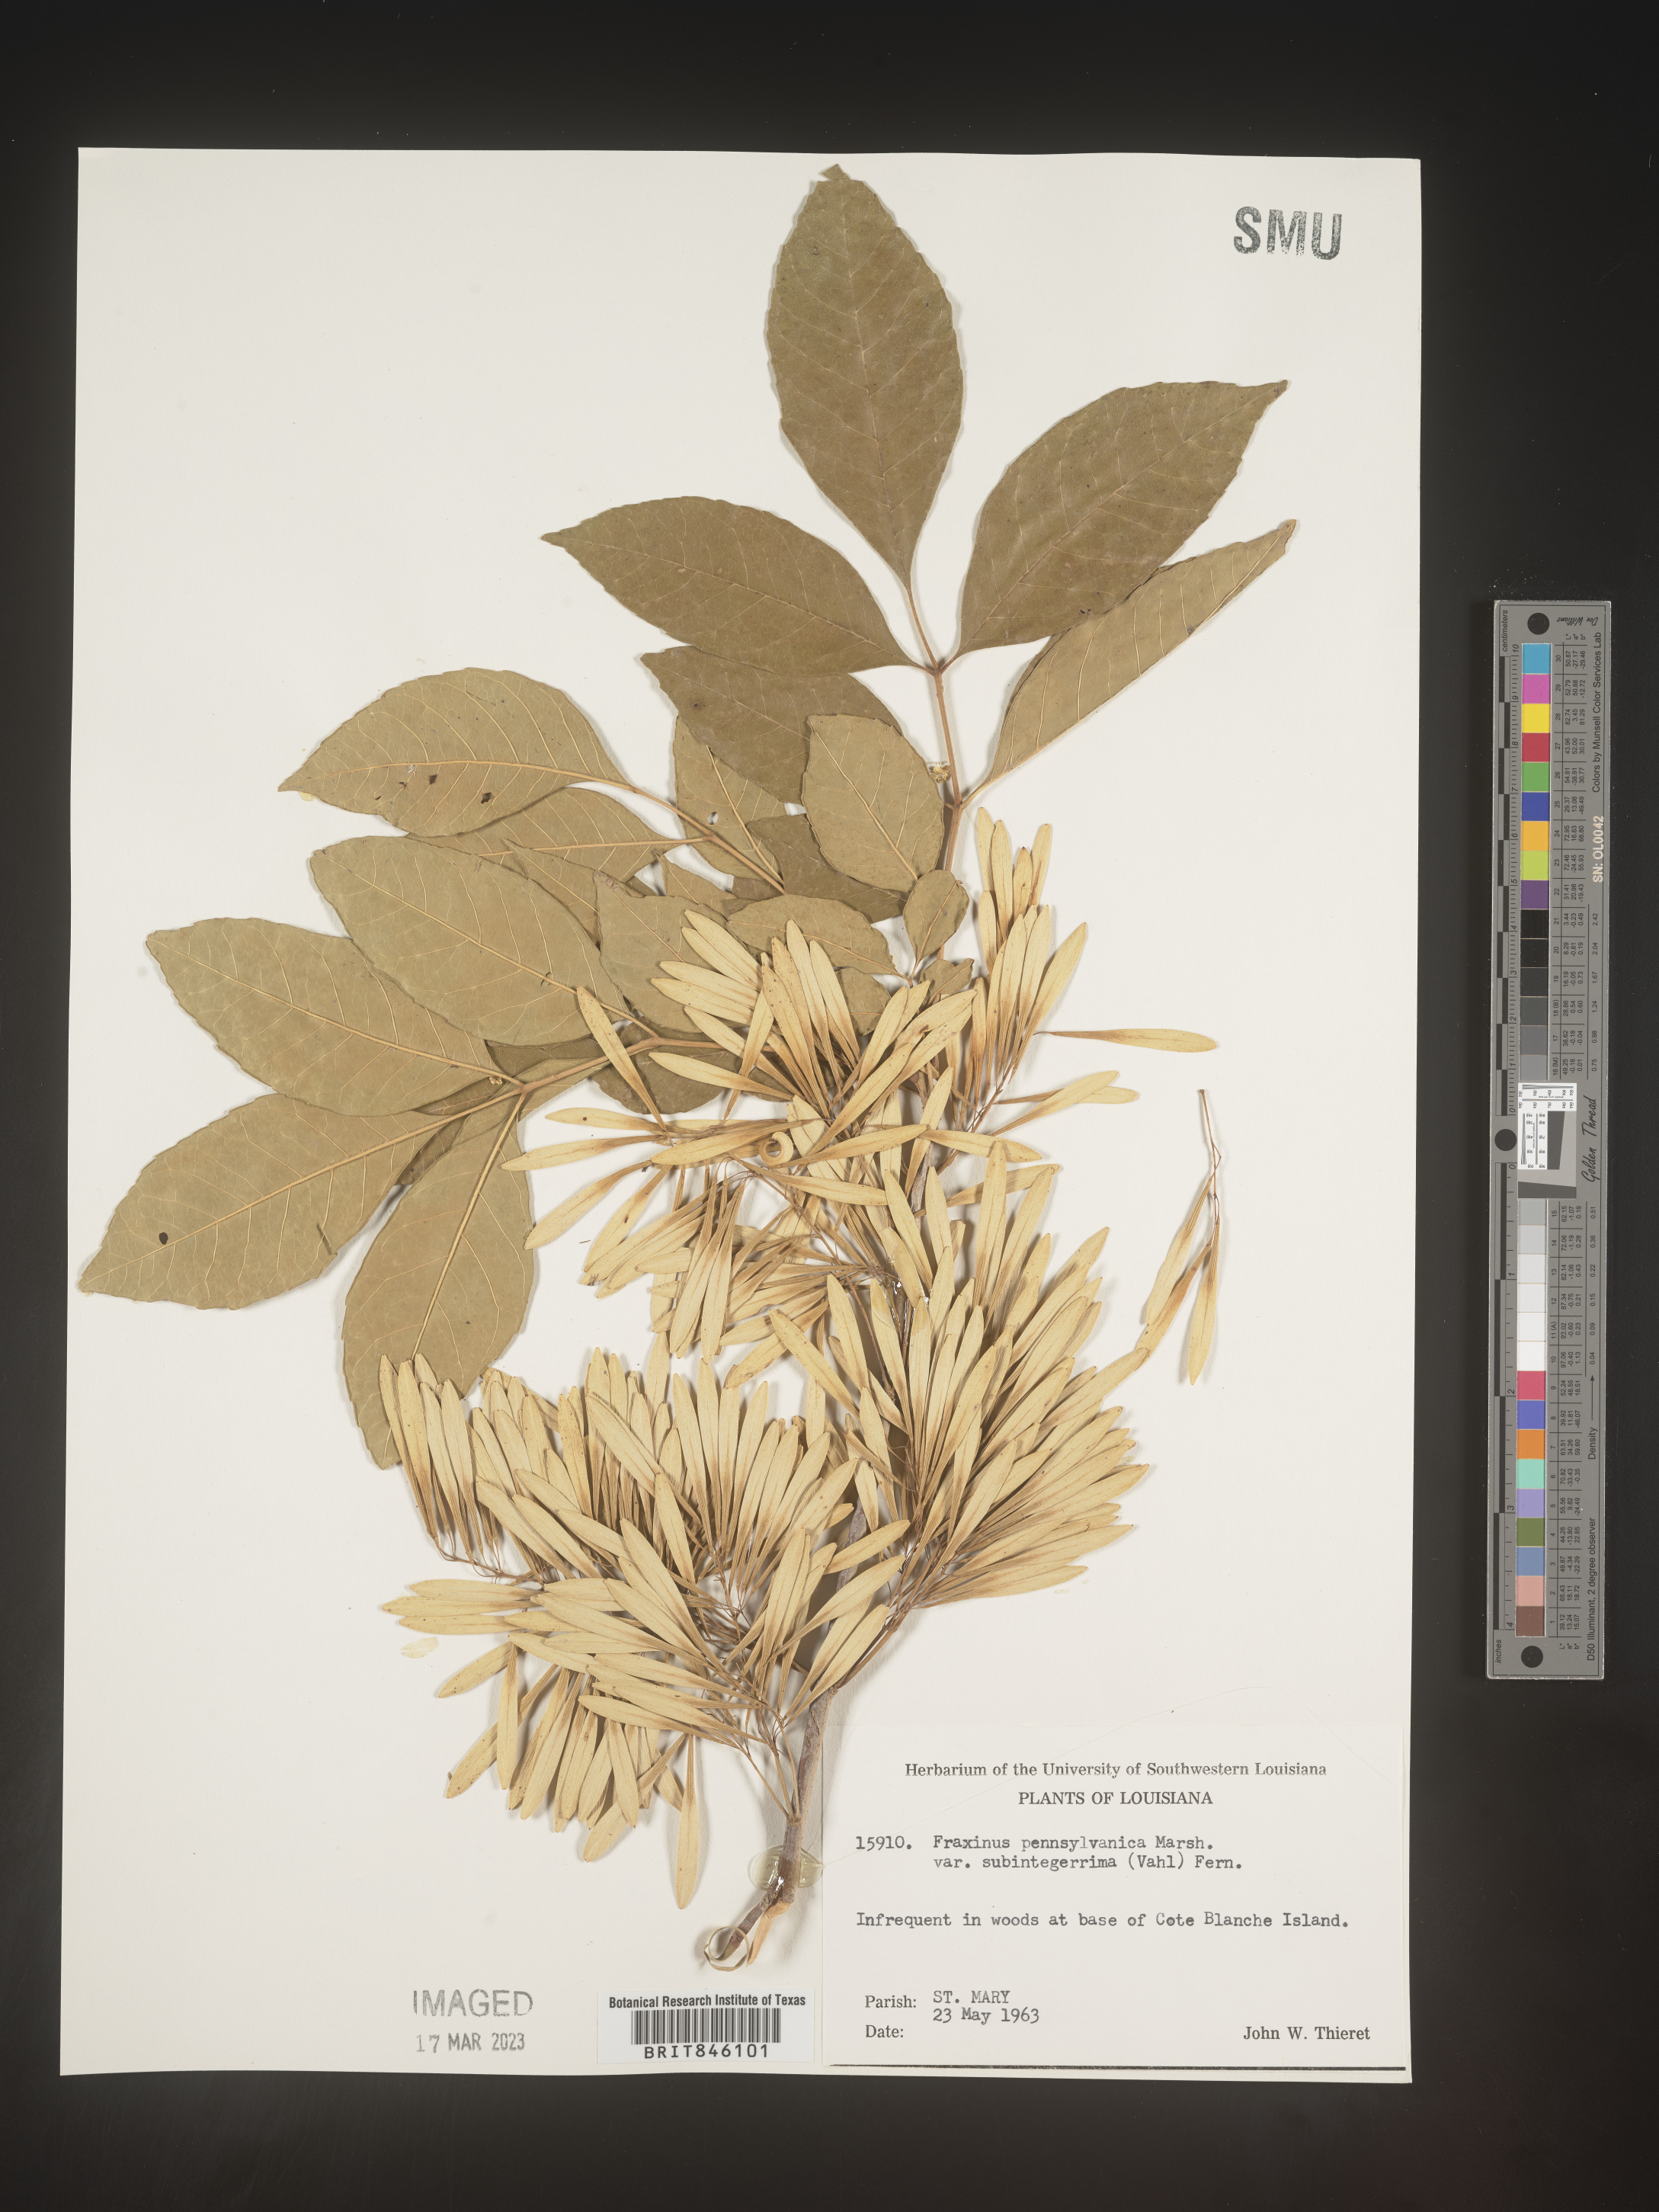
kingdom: Plantae
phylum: Tracheophyta
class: Magnoliopsida
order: Lamiales
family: Oleaceae
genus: Fraxinus
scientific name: Fraxinus pennsylvanica
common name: Green ash
